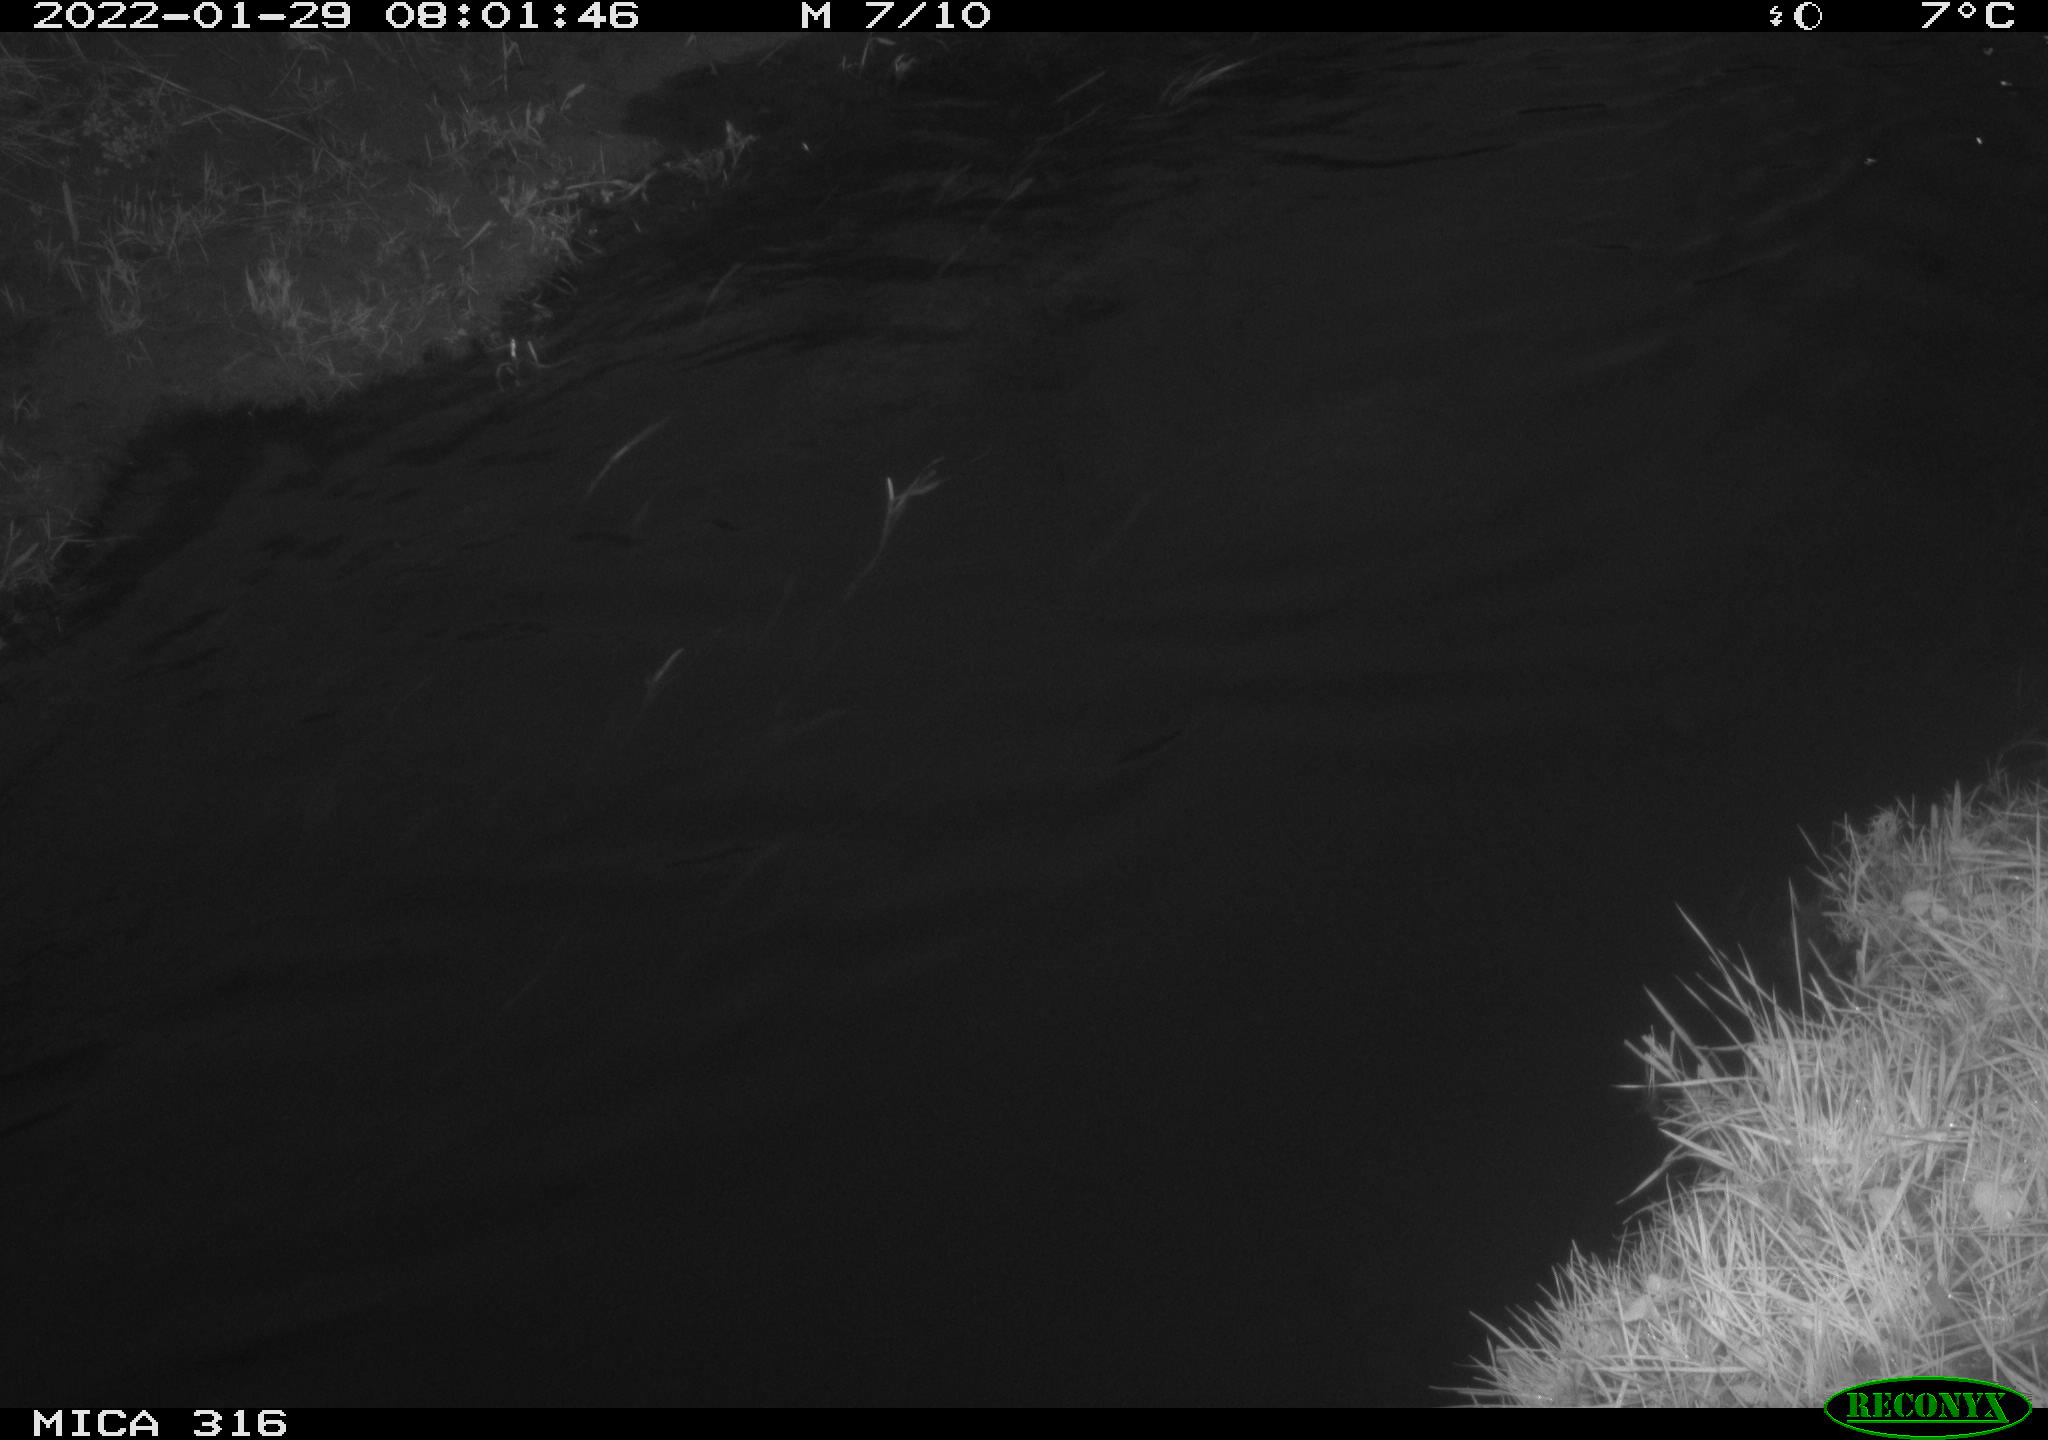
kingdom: Animalia
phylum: Chordata
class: Aves
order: Gruiformes
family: Rallidae
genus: Gallinula
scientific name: Gallinula chloropus
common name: Common moorhen
